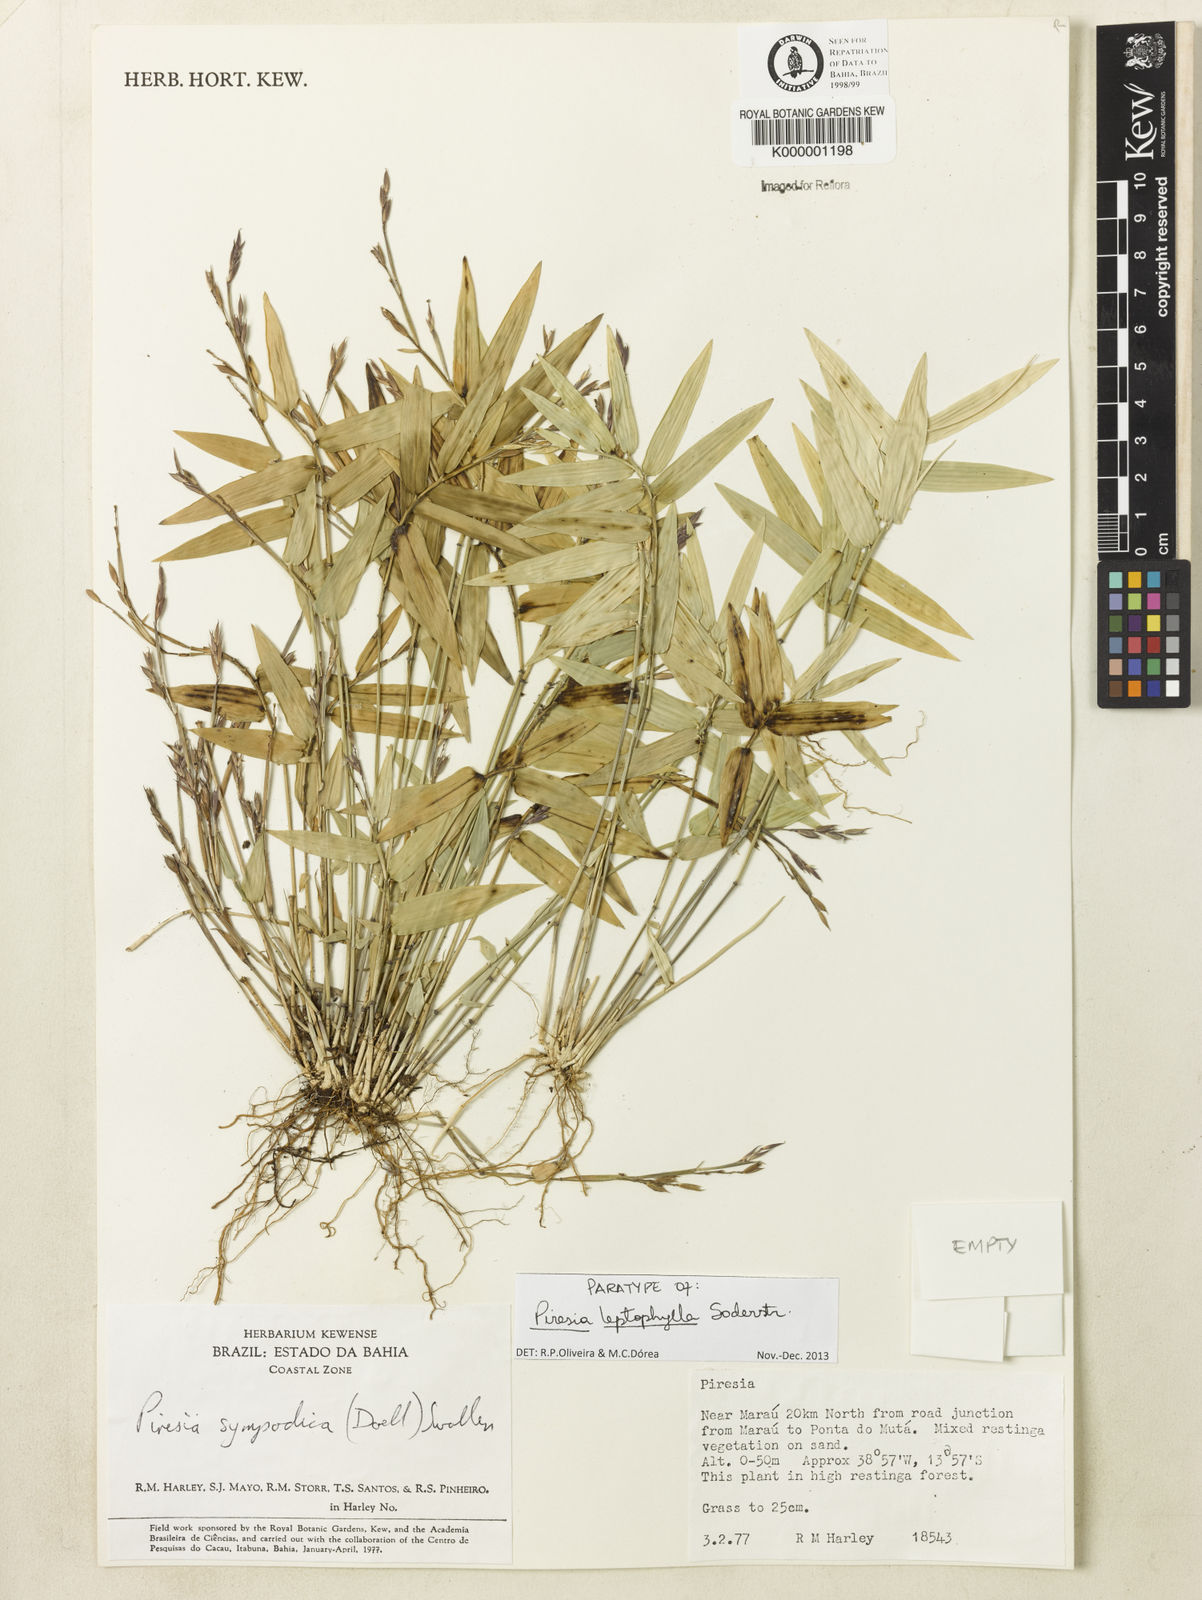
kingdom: Plantae
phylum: Tracheophyta
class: Liliopsida
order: Poales
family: Poaceae
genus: Piresia
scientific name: Piresia leptophylla
